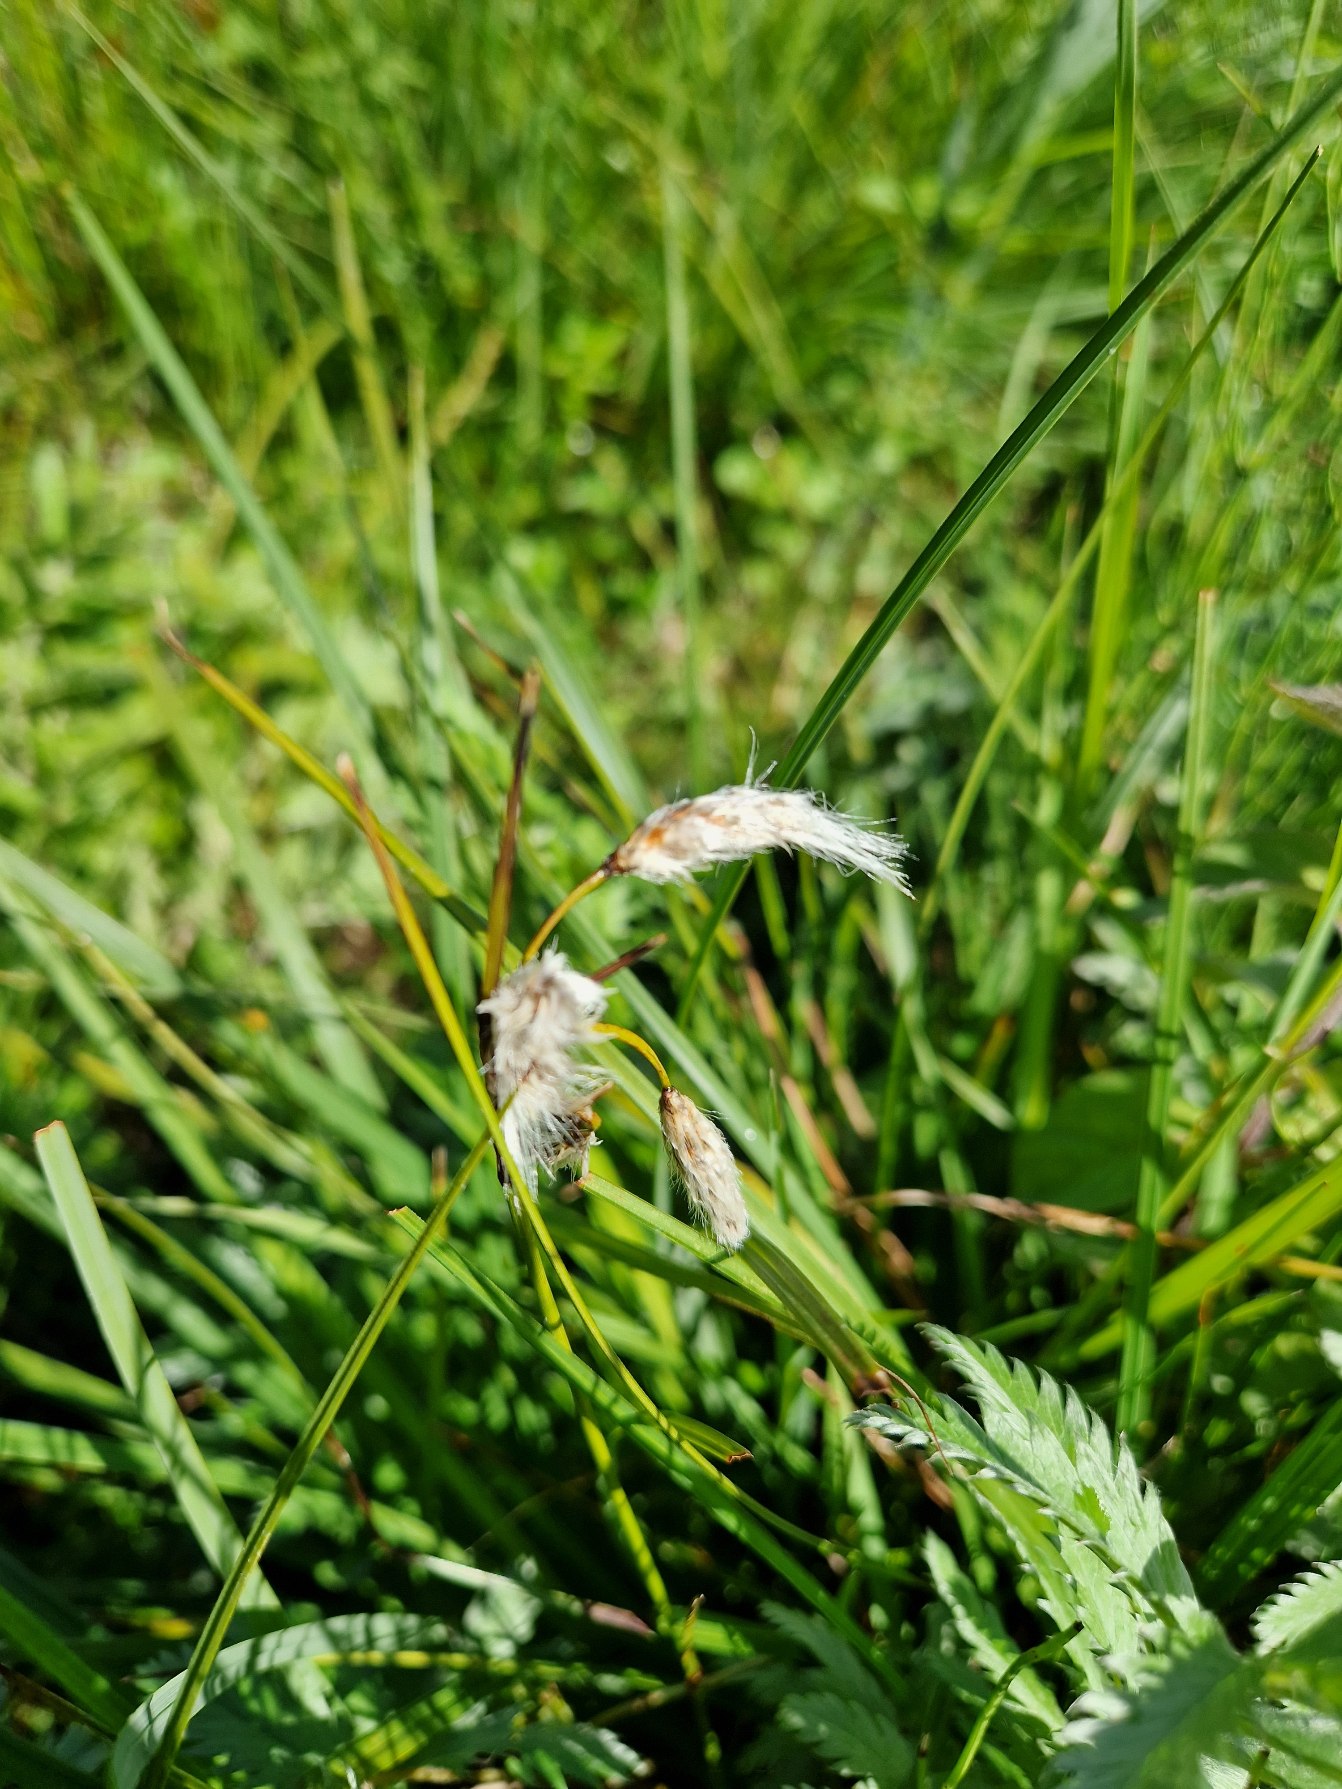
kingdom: Plantae
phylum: Tracheophyta
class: Liliopsida
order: Poales
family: Cyperaceae
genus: Eriophorum
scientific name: Eriophorum angustifolium
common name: Smalbladet kæruld
